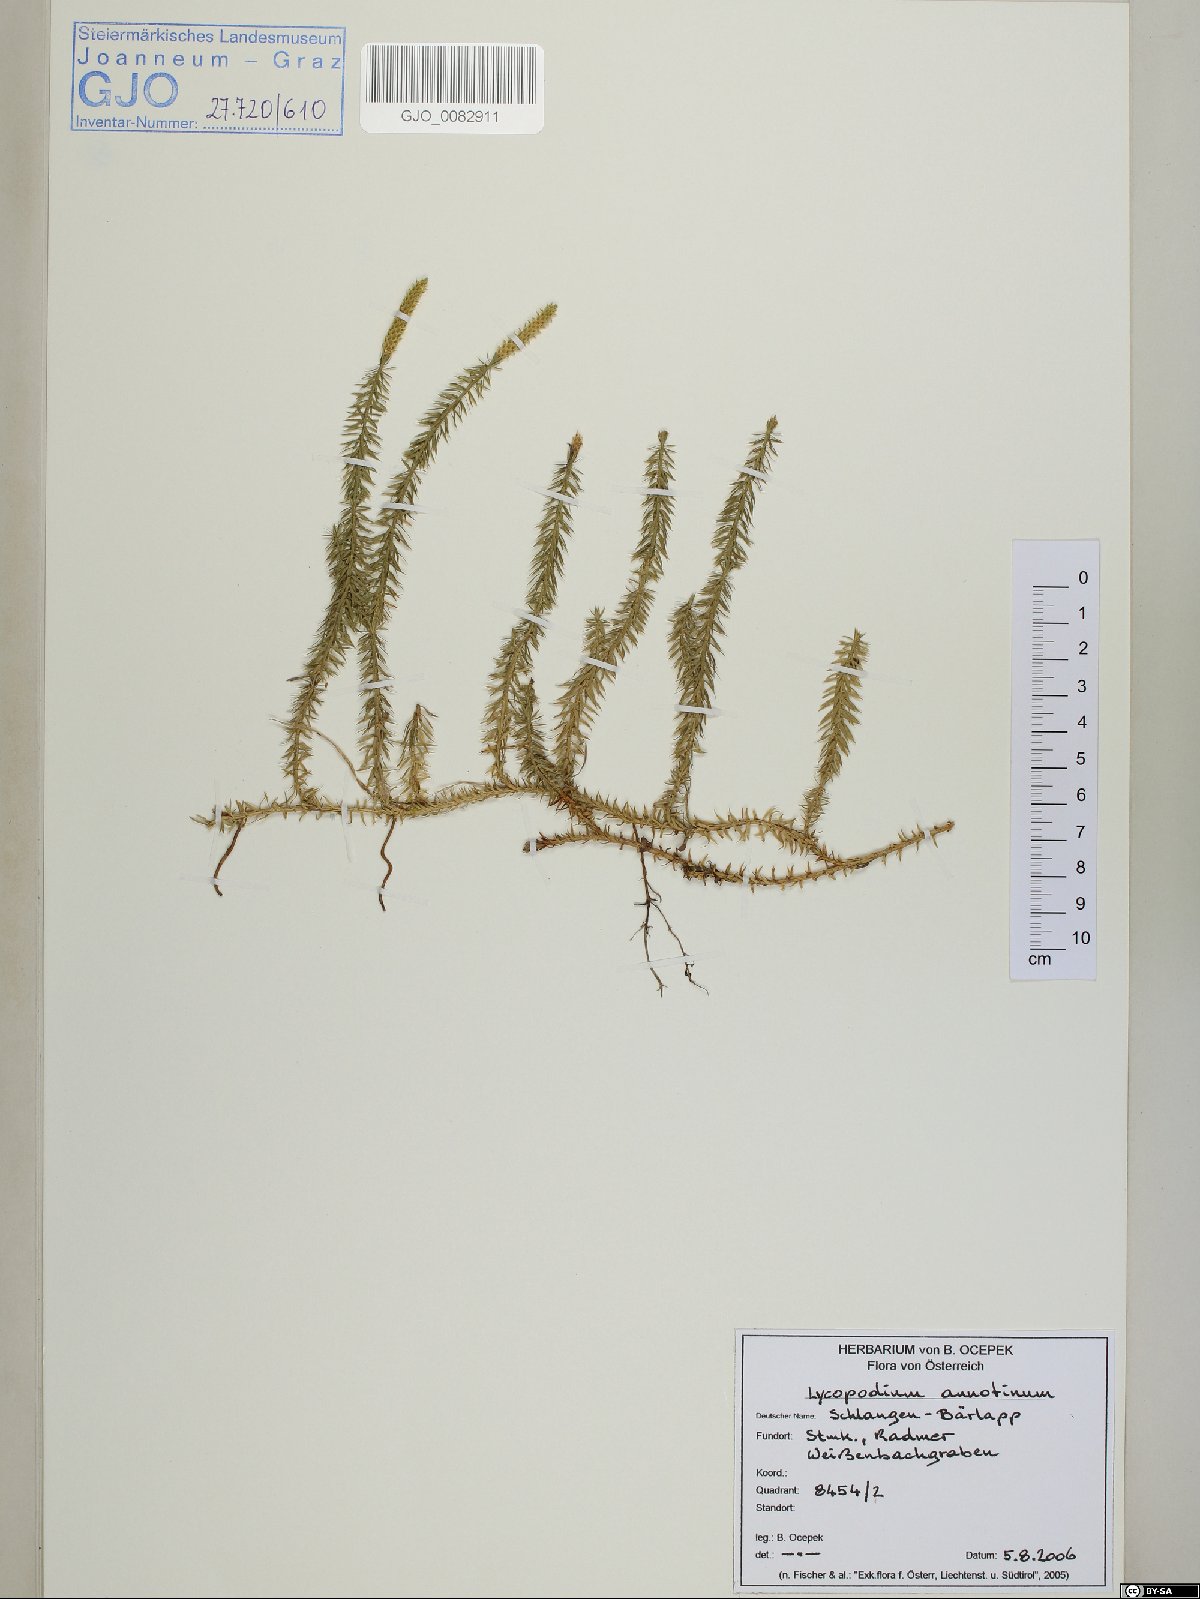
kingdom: Plantae
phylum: Tracheophyta
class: Lycopodiopsida
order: Lycopodiales
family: Lycopodiaceae
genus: Spinulum
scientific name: Spinulum annotinum
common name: Interrupted club-moss
